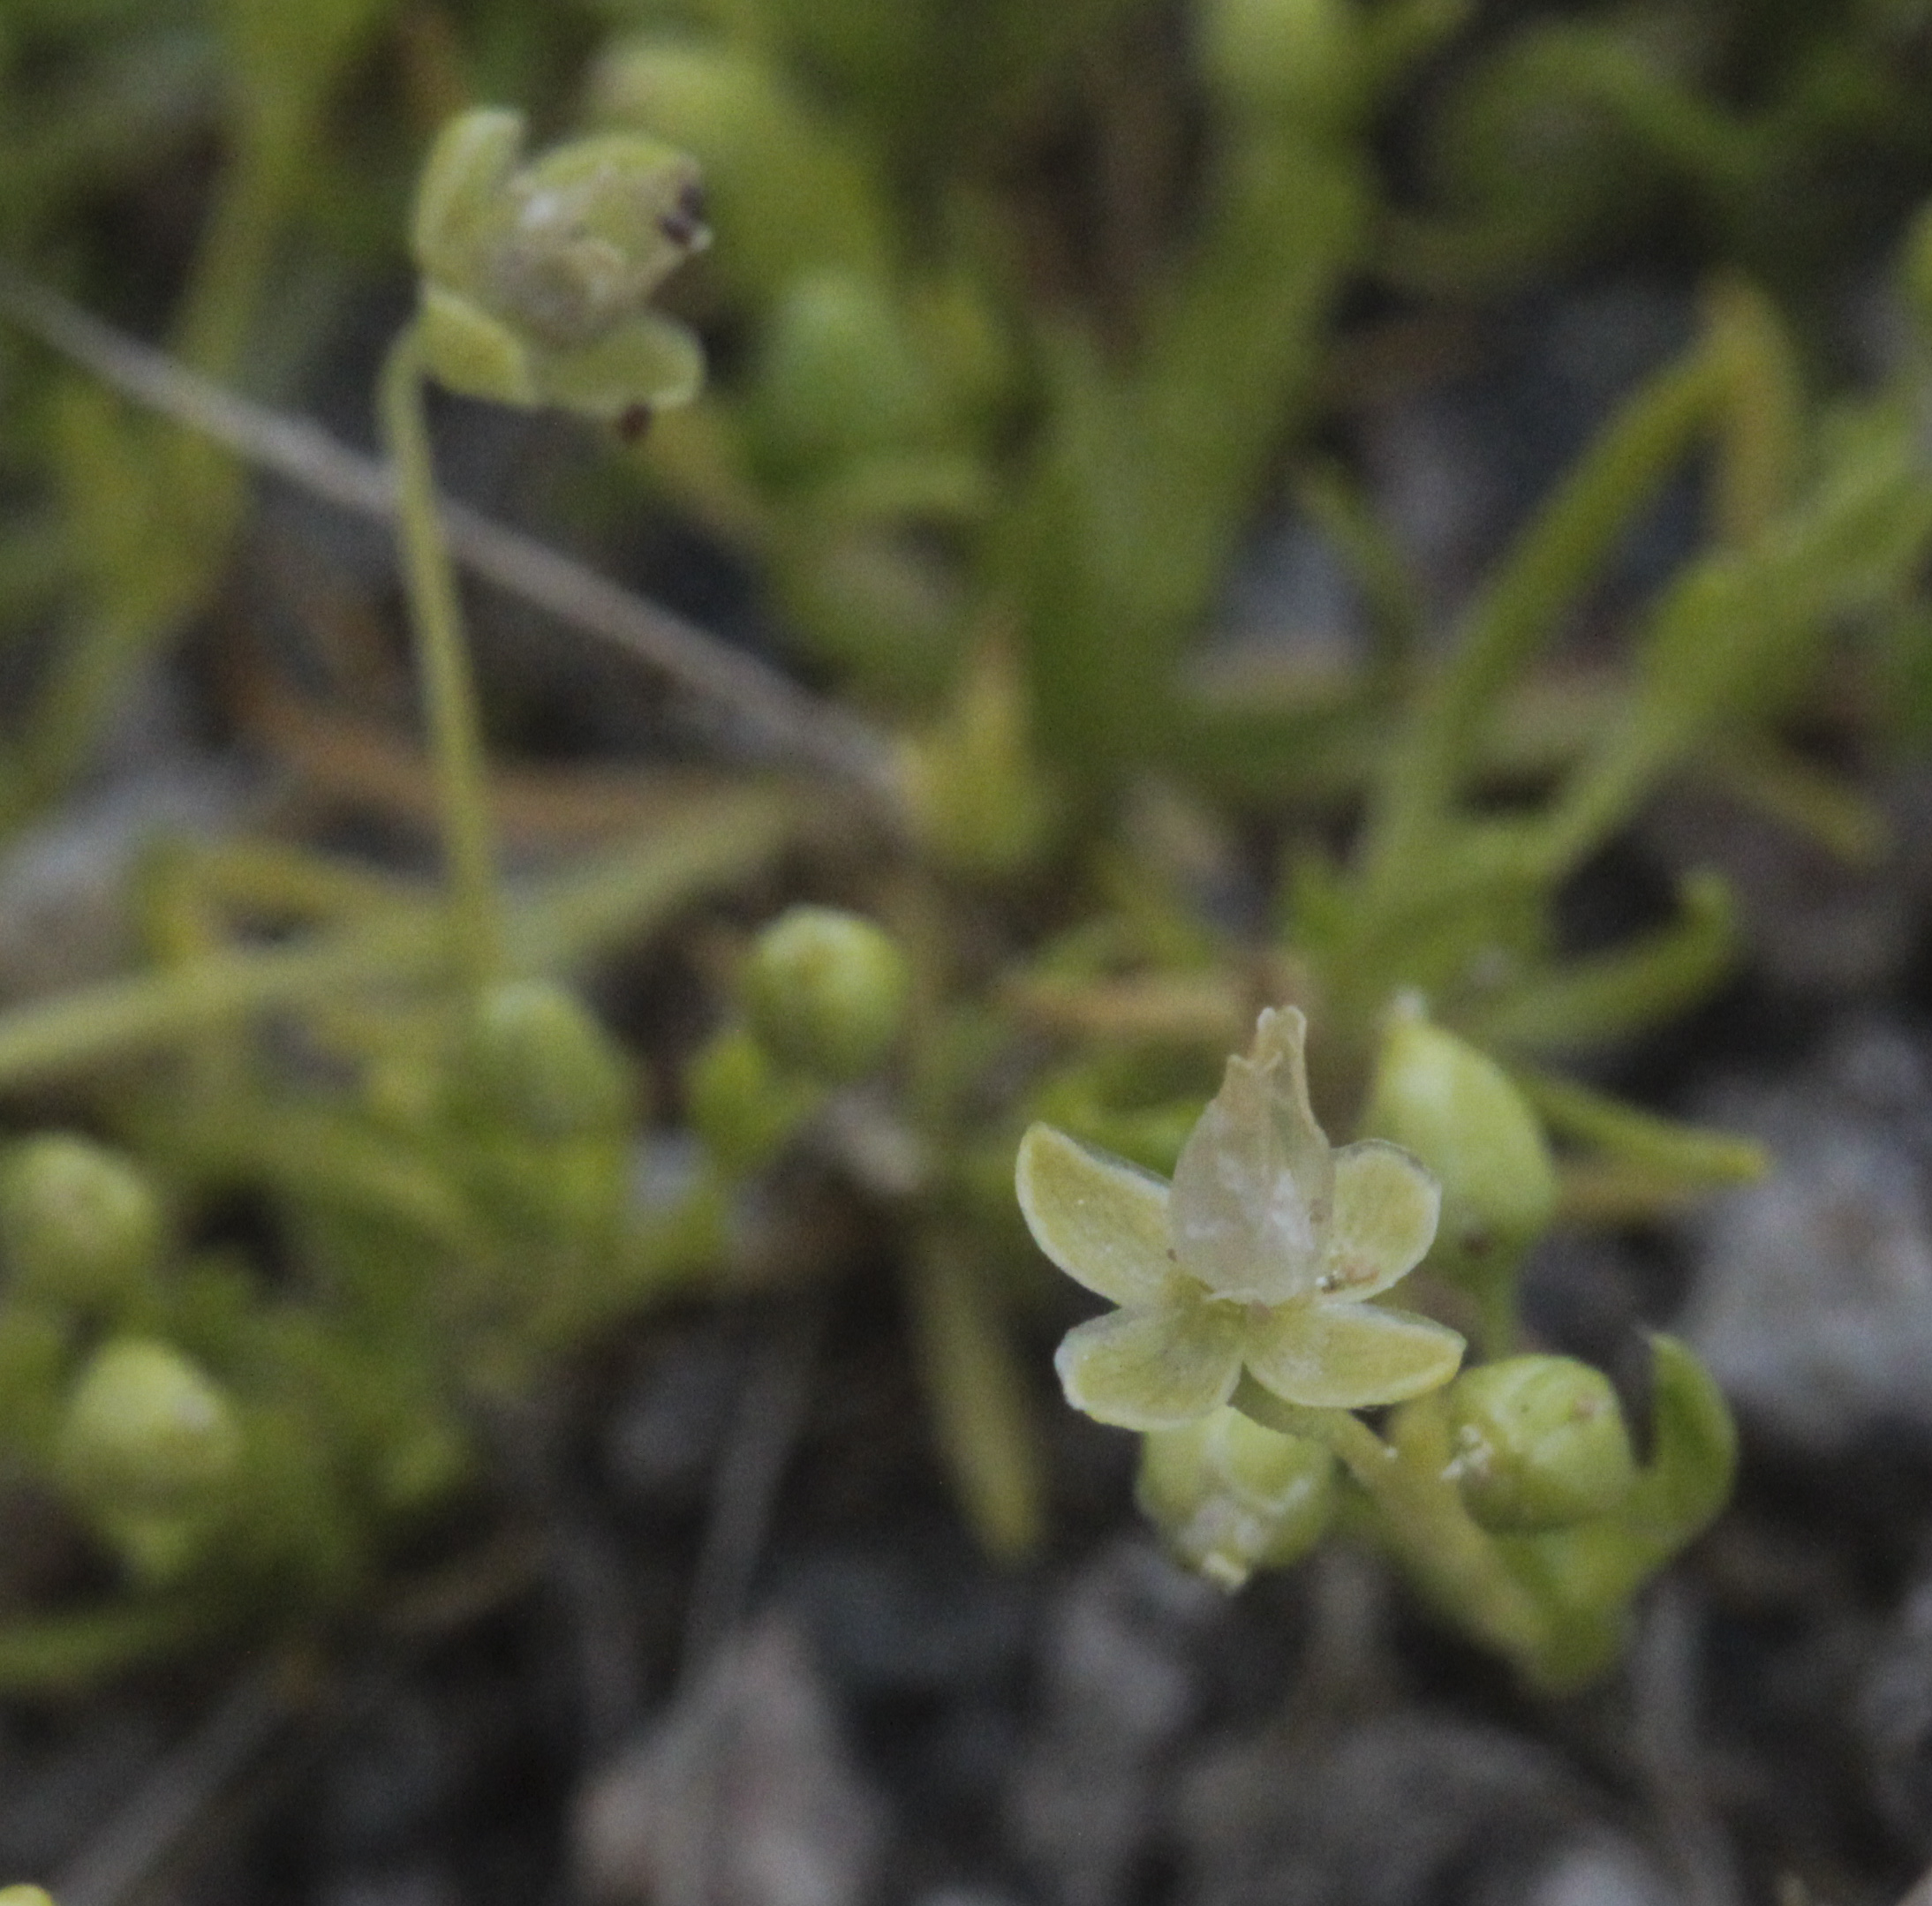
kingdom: Plantae
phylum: Tracheophyta
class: Magnoliopsida
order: Caryophyllales
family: Caryophyllaceae
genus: Sagina
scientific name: Sagina procumbens
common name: Procumbent pearlwort
